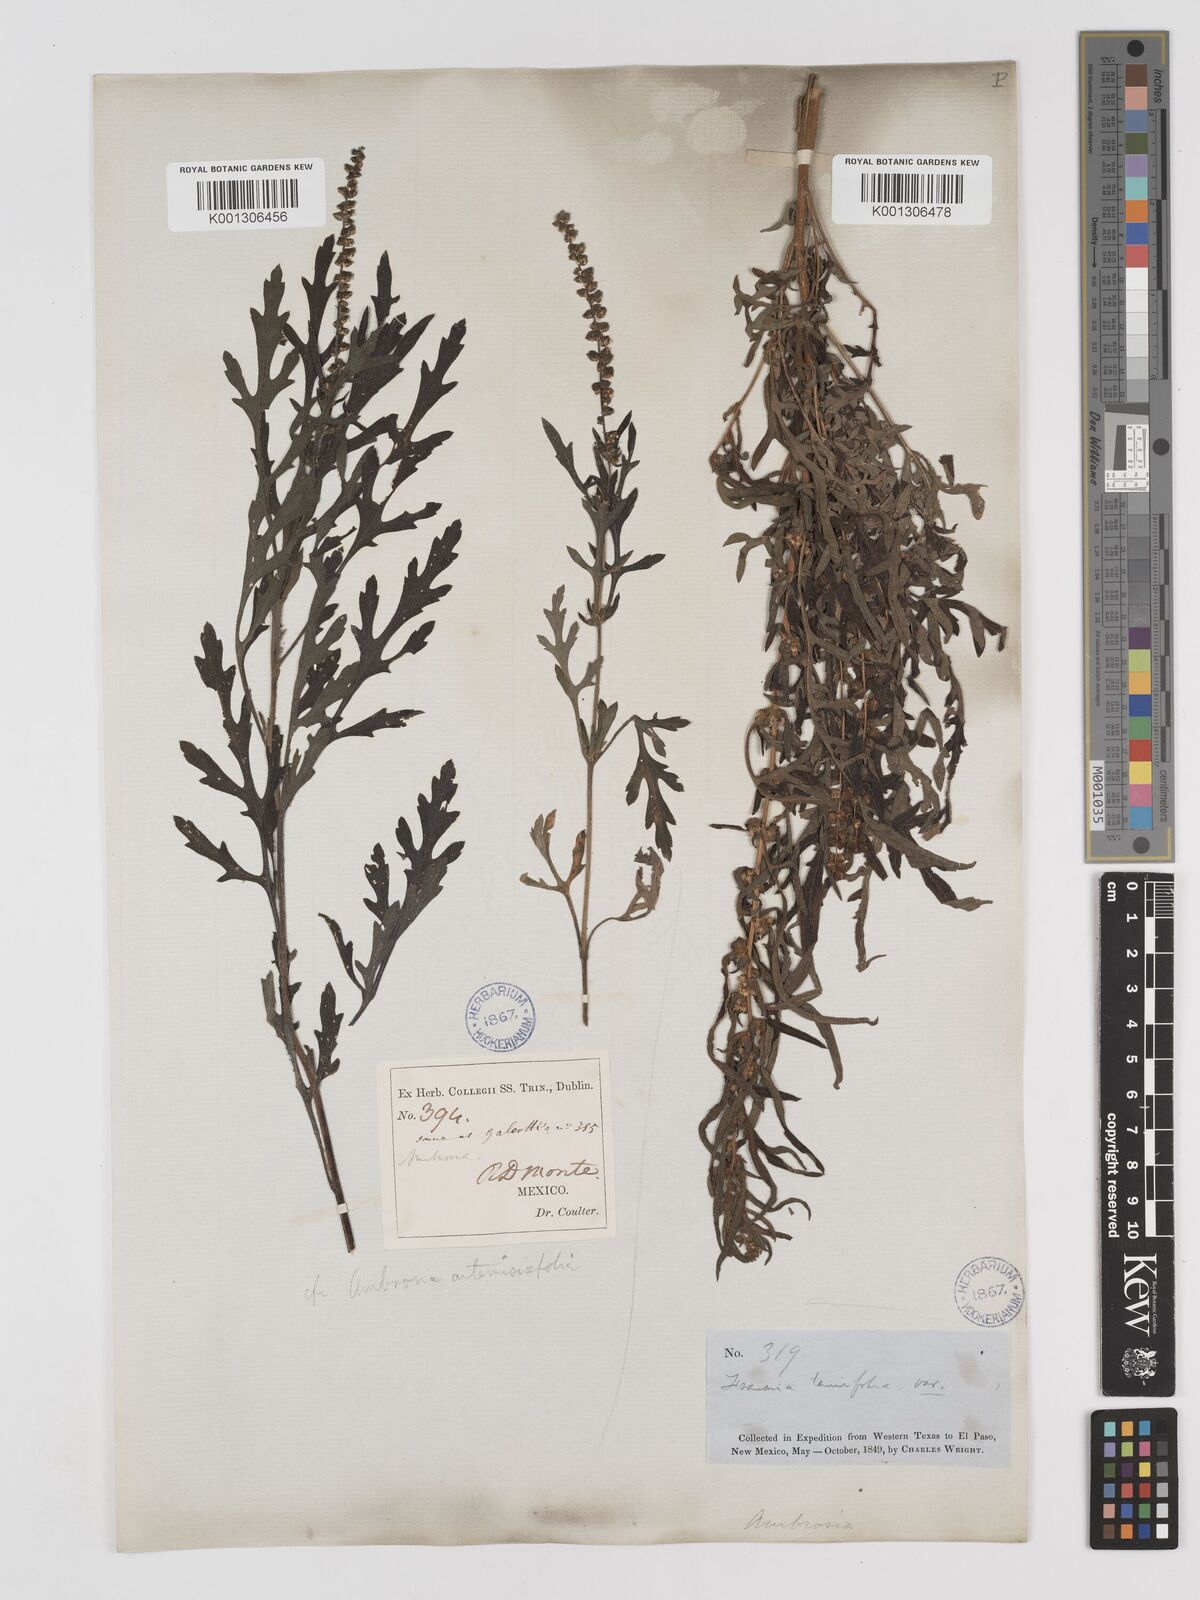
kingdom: Plantae
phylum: Tracheophyta
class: Magnoliopsida
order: Asterales
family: Asteraceae
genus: Ambrosia
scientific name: Ambrosia tenuifolia
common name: Lacy ambrosia
